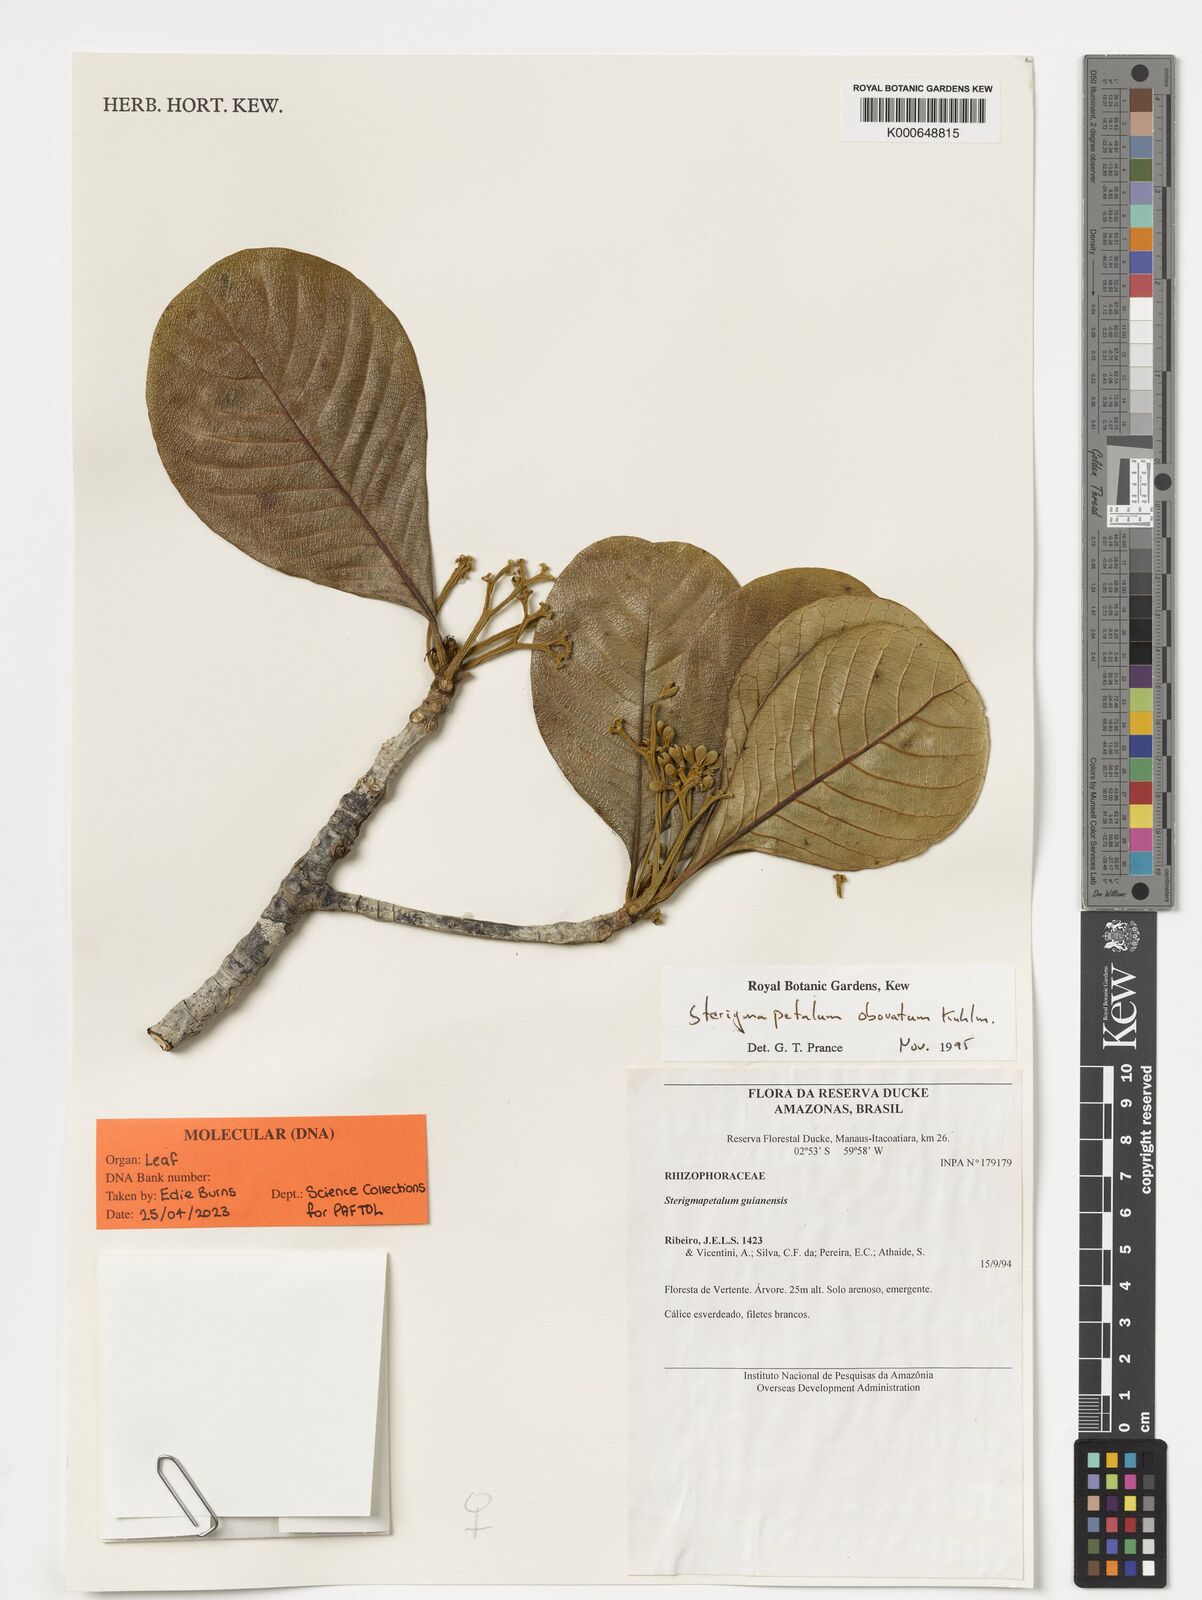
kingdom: Plantae
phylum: Tracheophyta
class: Magnoliopsida
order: Malpighiales
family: Rhizophoraceae
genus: Sterigmapetalum
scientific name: Sterigmapetalum obovatum
